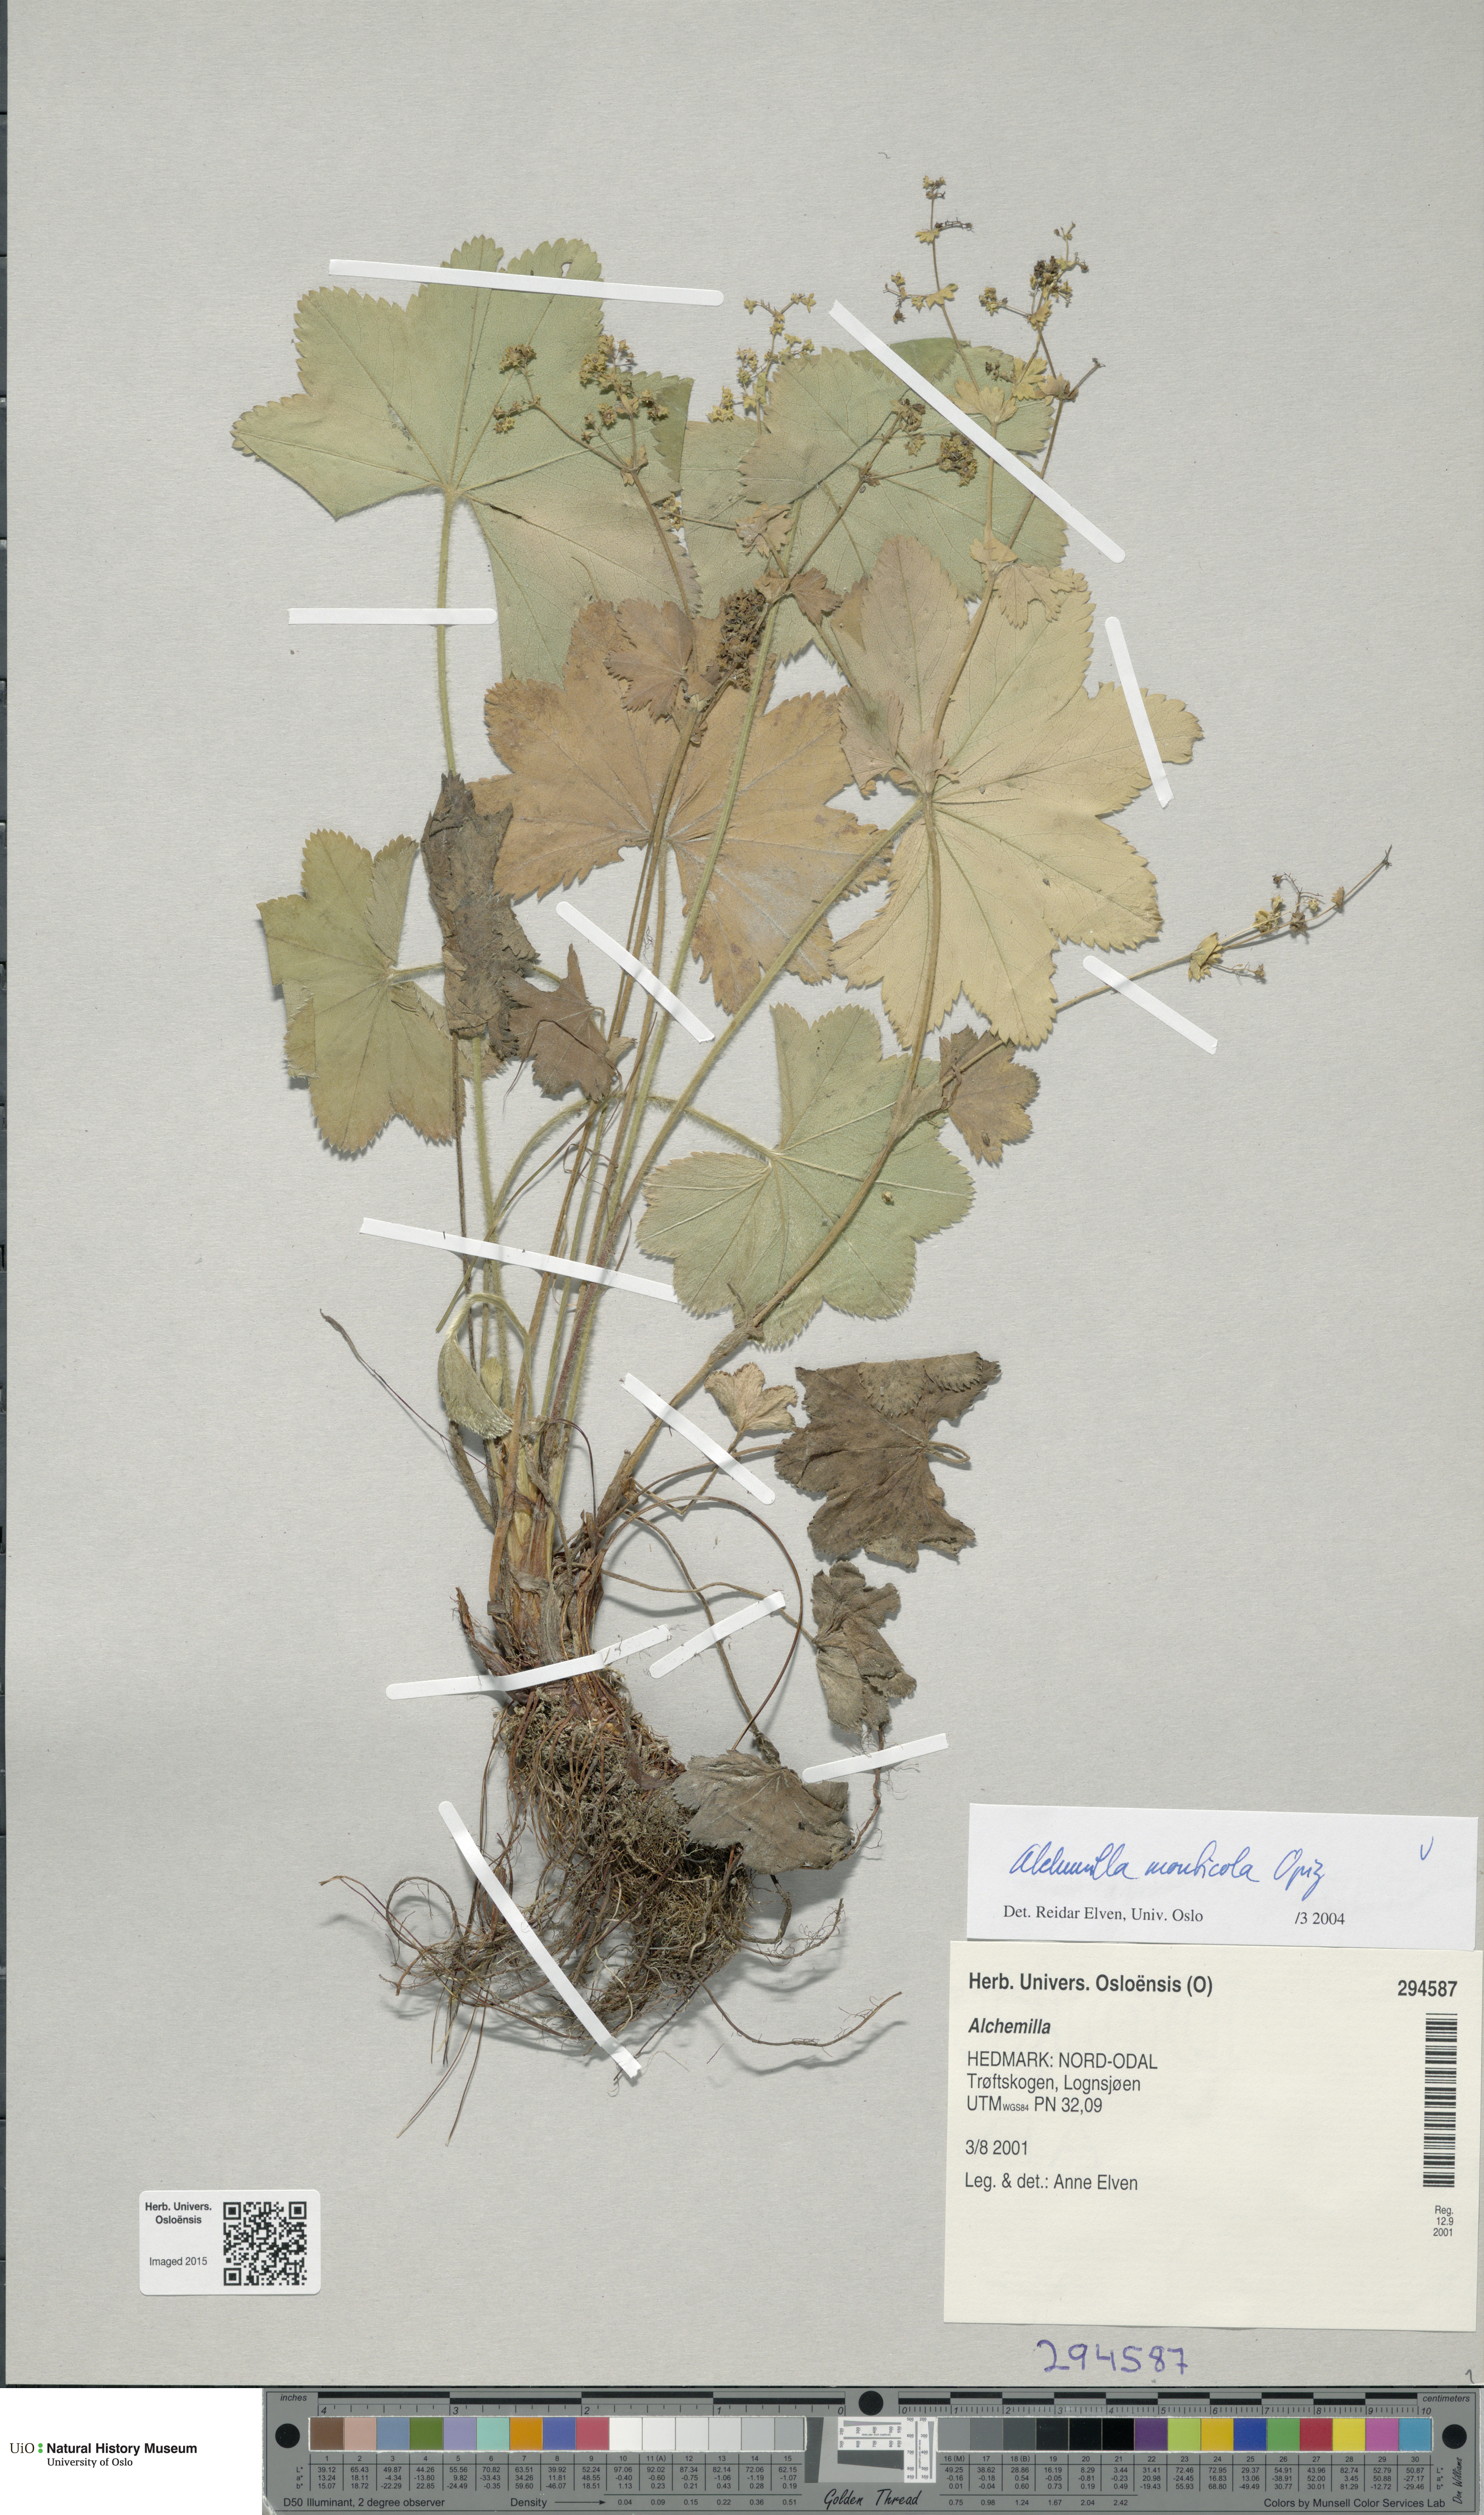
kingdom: Plantae
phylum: Tracheophyta
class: Magnoliopsida
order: Rosales
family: Rosaceae
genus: Alchemilla
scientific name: Alchemilla monticola
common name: Hairy lady's mantle
